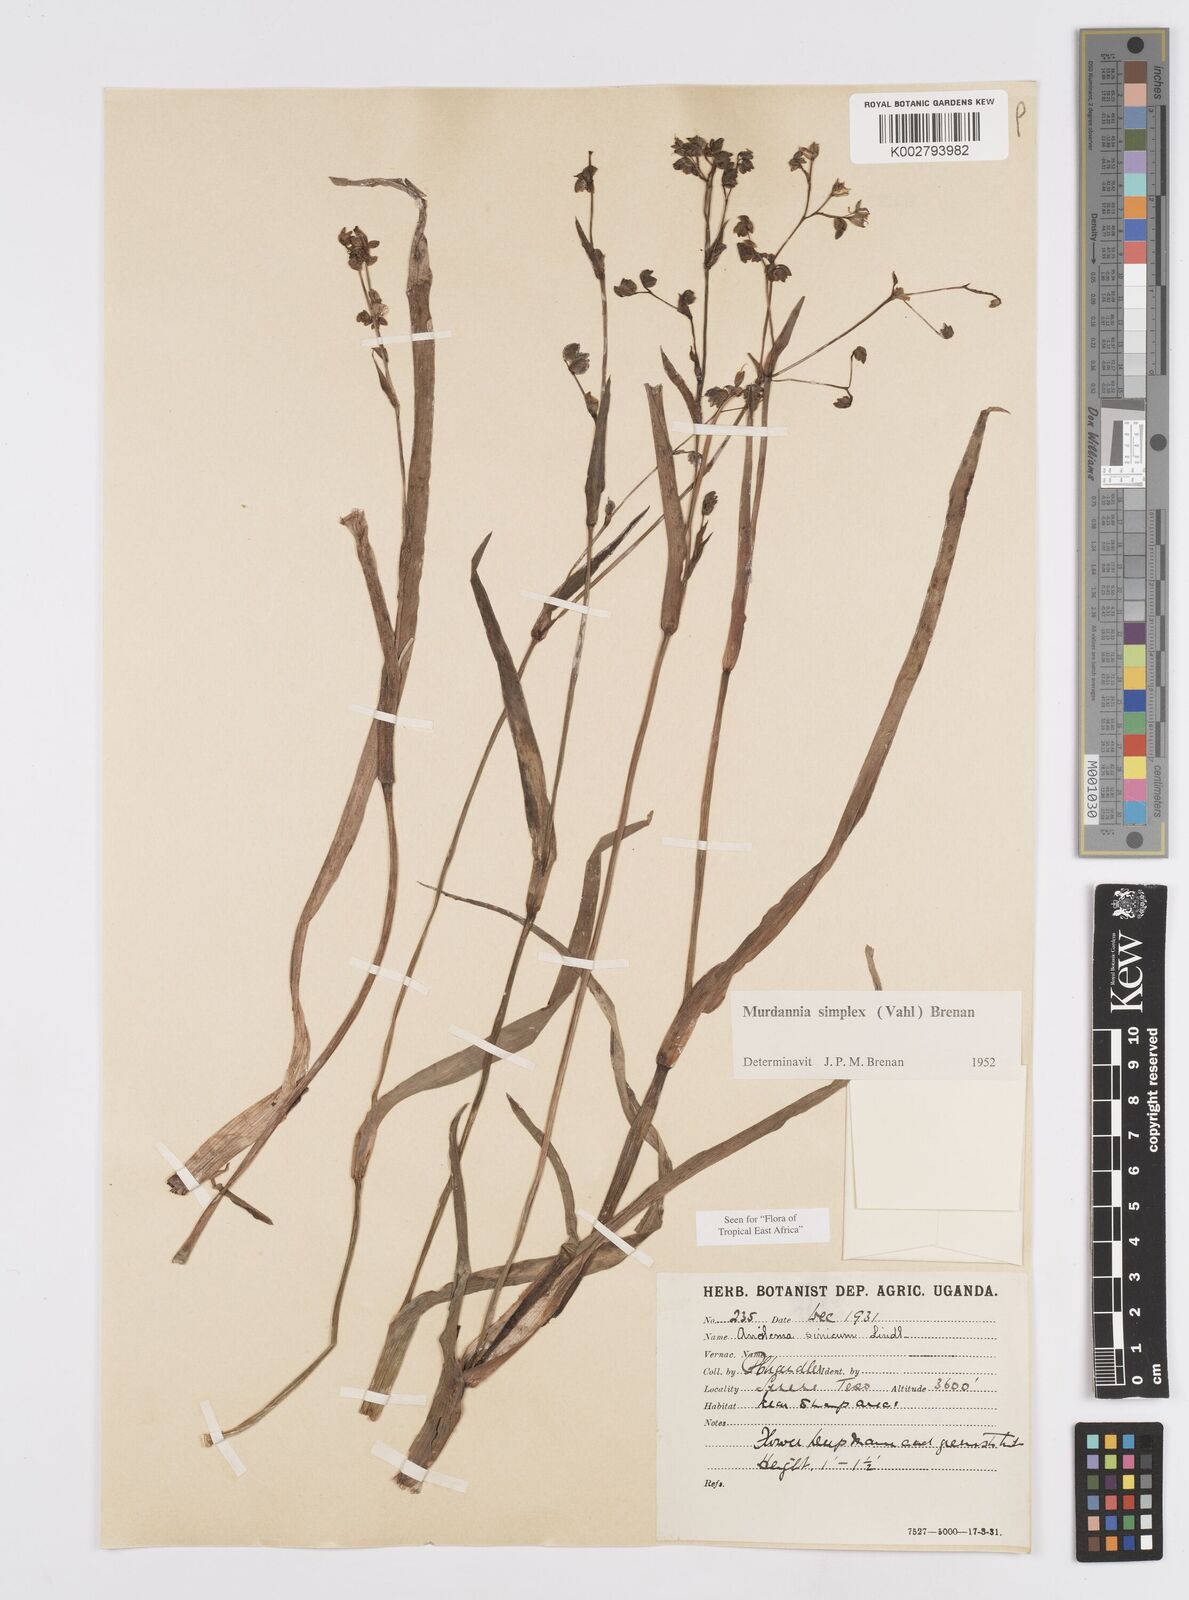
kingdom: Plantae
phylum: Tracheophyta
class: Liliopsida
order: Commelinales
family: Commelinaceae
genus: Murdannia
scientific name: Murdannia simplex
